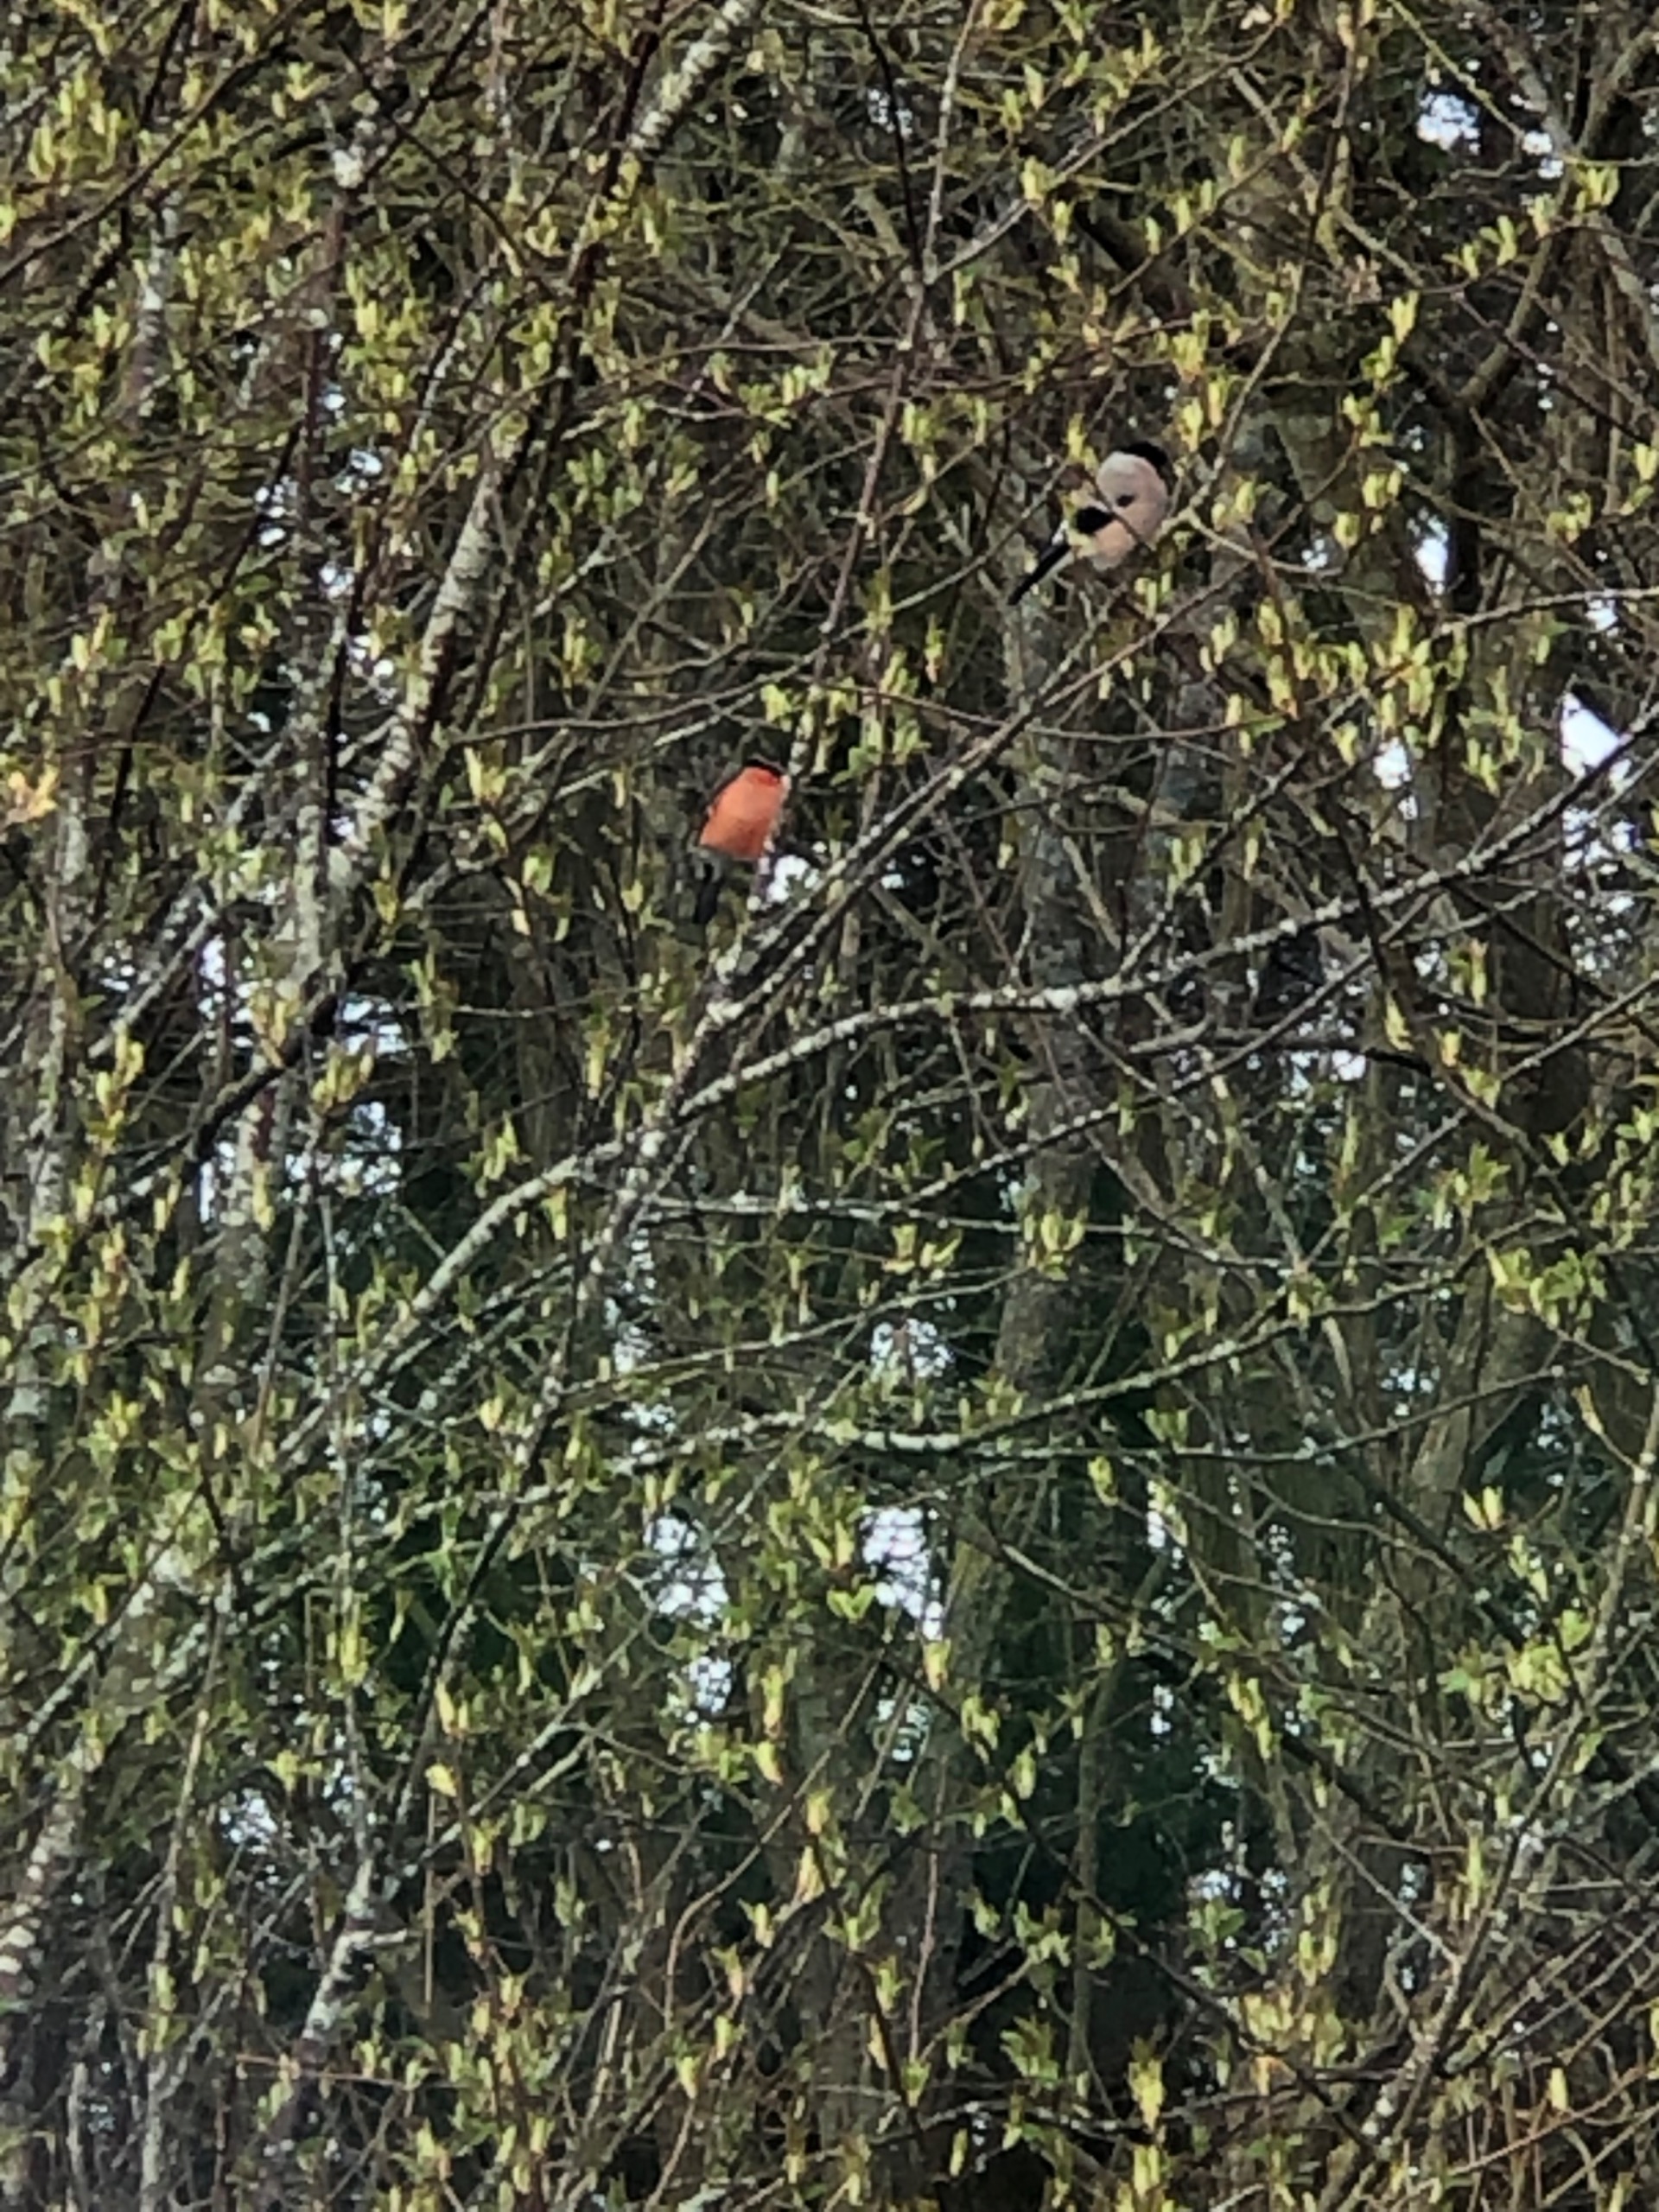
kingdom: Animalia
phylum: Chordata
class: Aves
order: Passeriformes
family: Fringillidae
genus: Pyrrhula
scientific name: Pyrrhula pyrrhula
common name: Dompap
